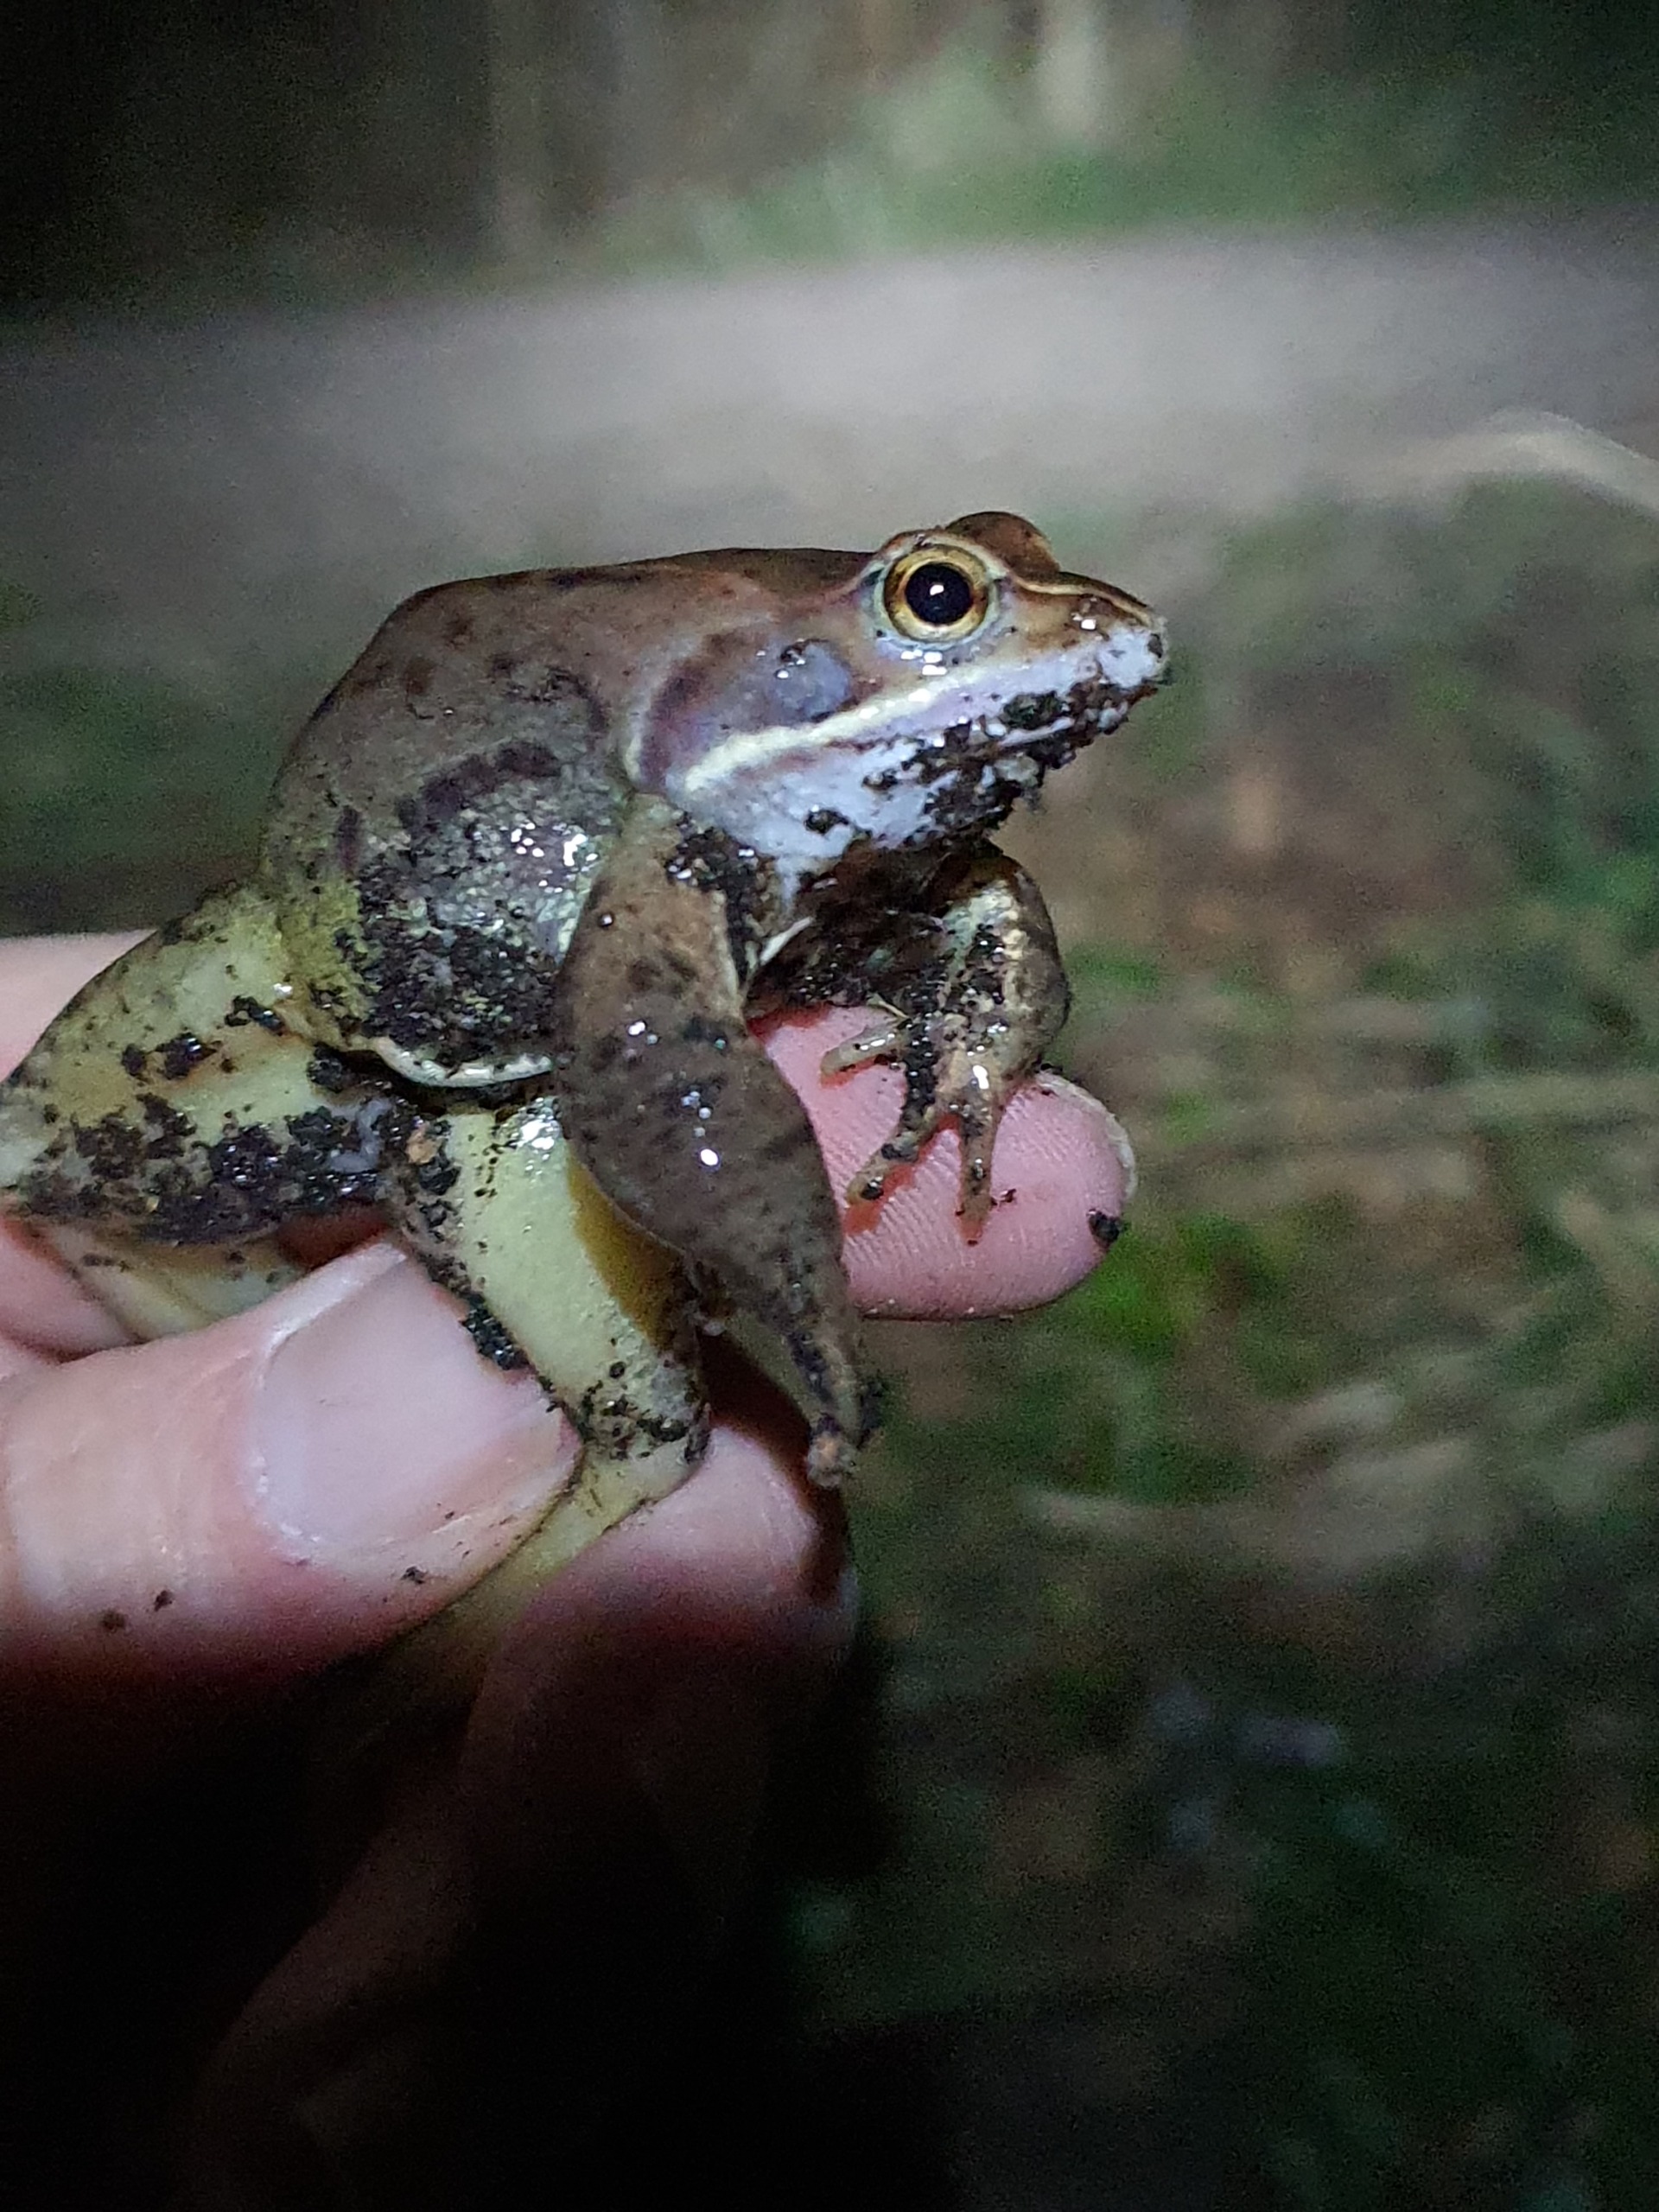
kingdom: Animalia
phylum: Chordata
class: Amphibia
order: Anura
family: Ranidae
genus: Rana
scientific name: Rana arvalis
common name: Spidssnudet frø
